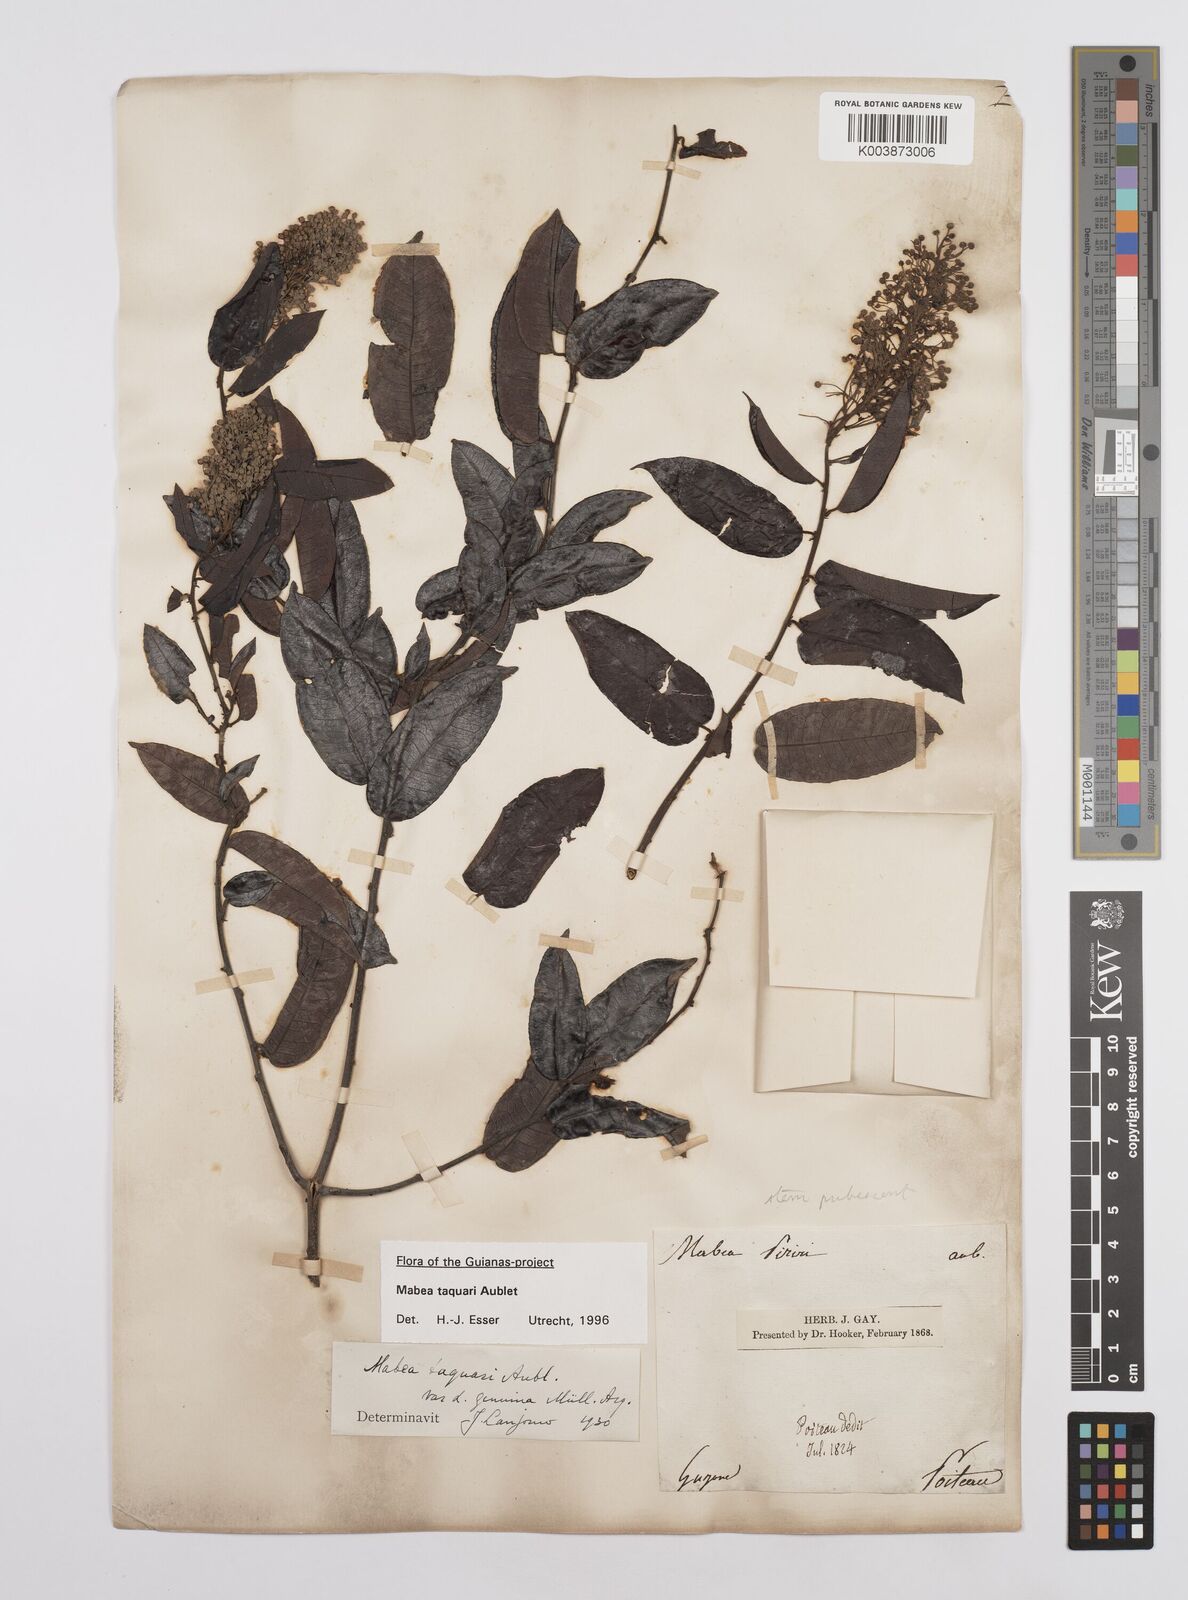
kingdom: Plantae
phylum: Tracheophyta
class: Magnoliopsida
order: Malpighiales
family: Euphorbiaceae
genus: Mabea
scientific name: Mabea taquari
